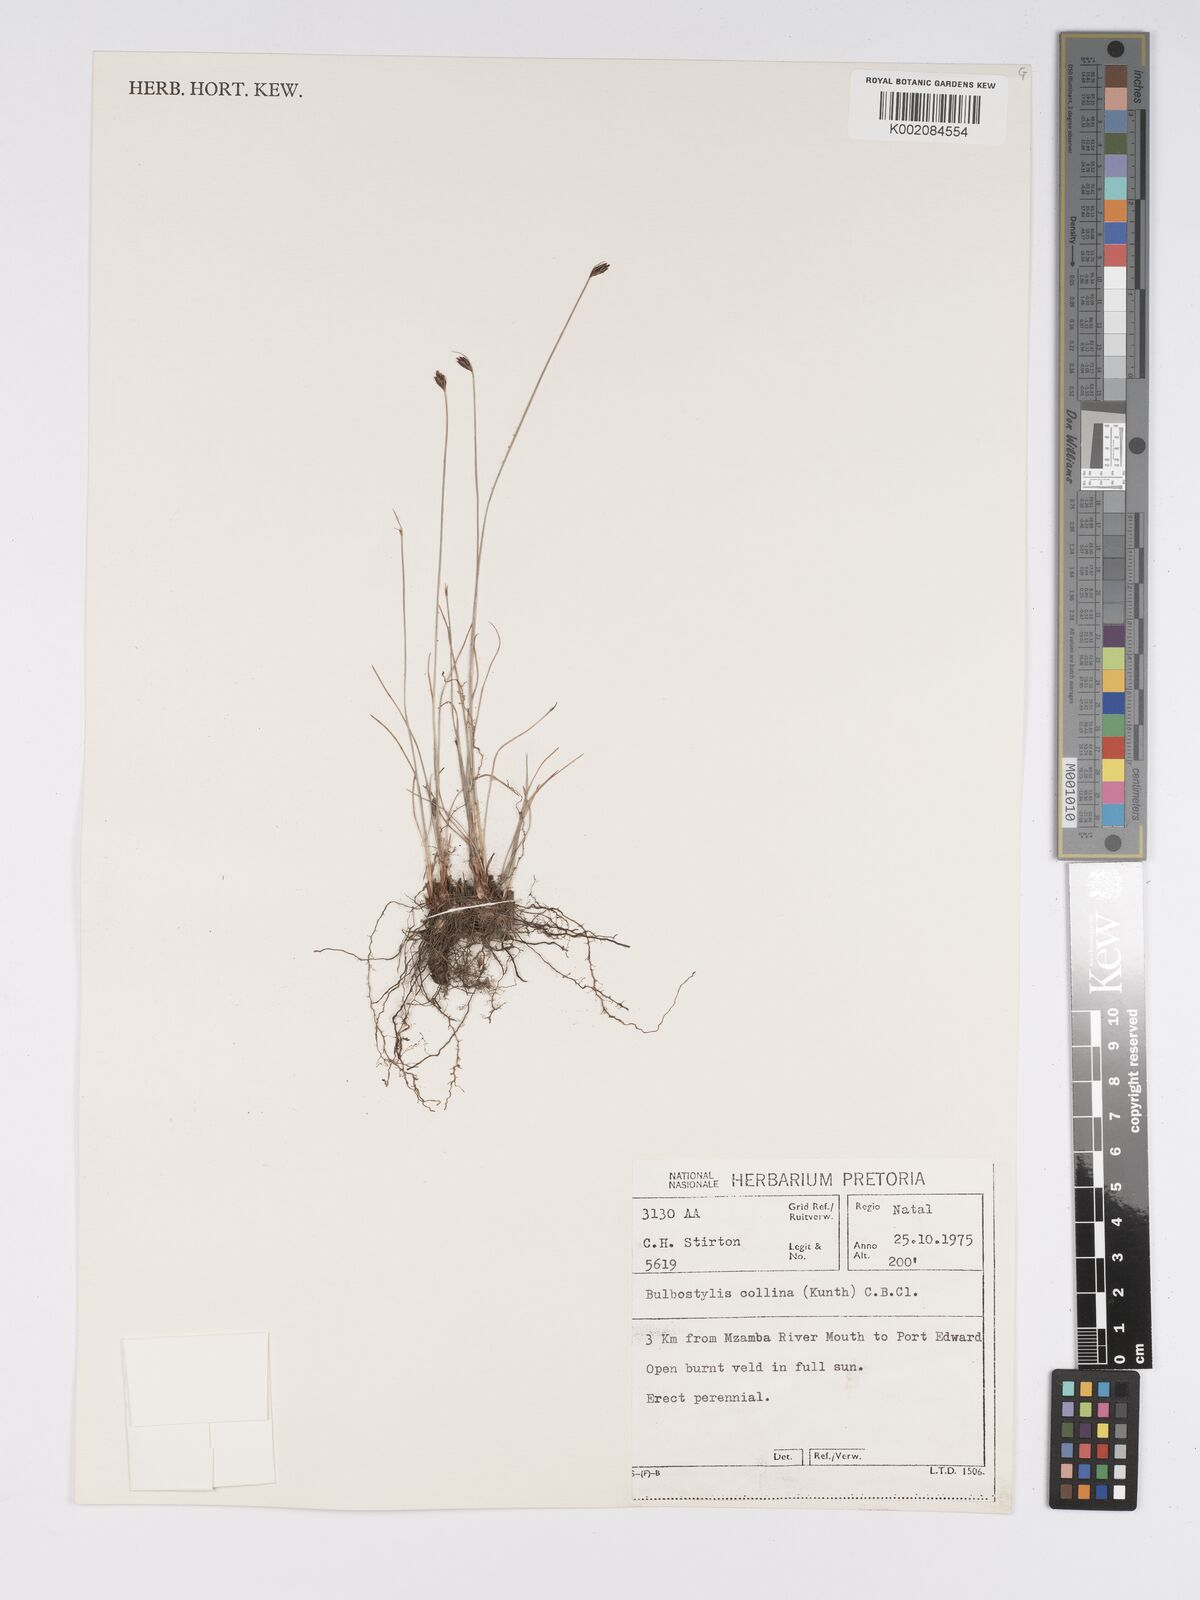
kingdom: Plantae
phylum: Tracheophyta
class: Liliopsida
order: Poales
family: Cyperaceae
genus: Bulbostylis
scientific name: Bulbostylis contexta
